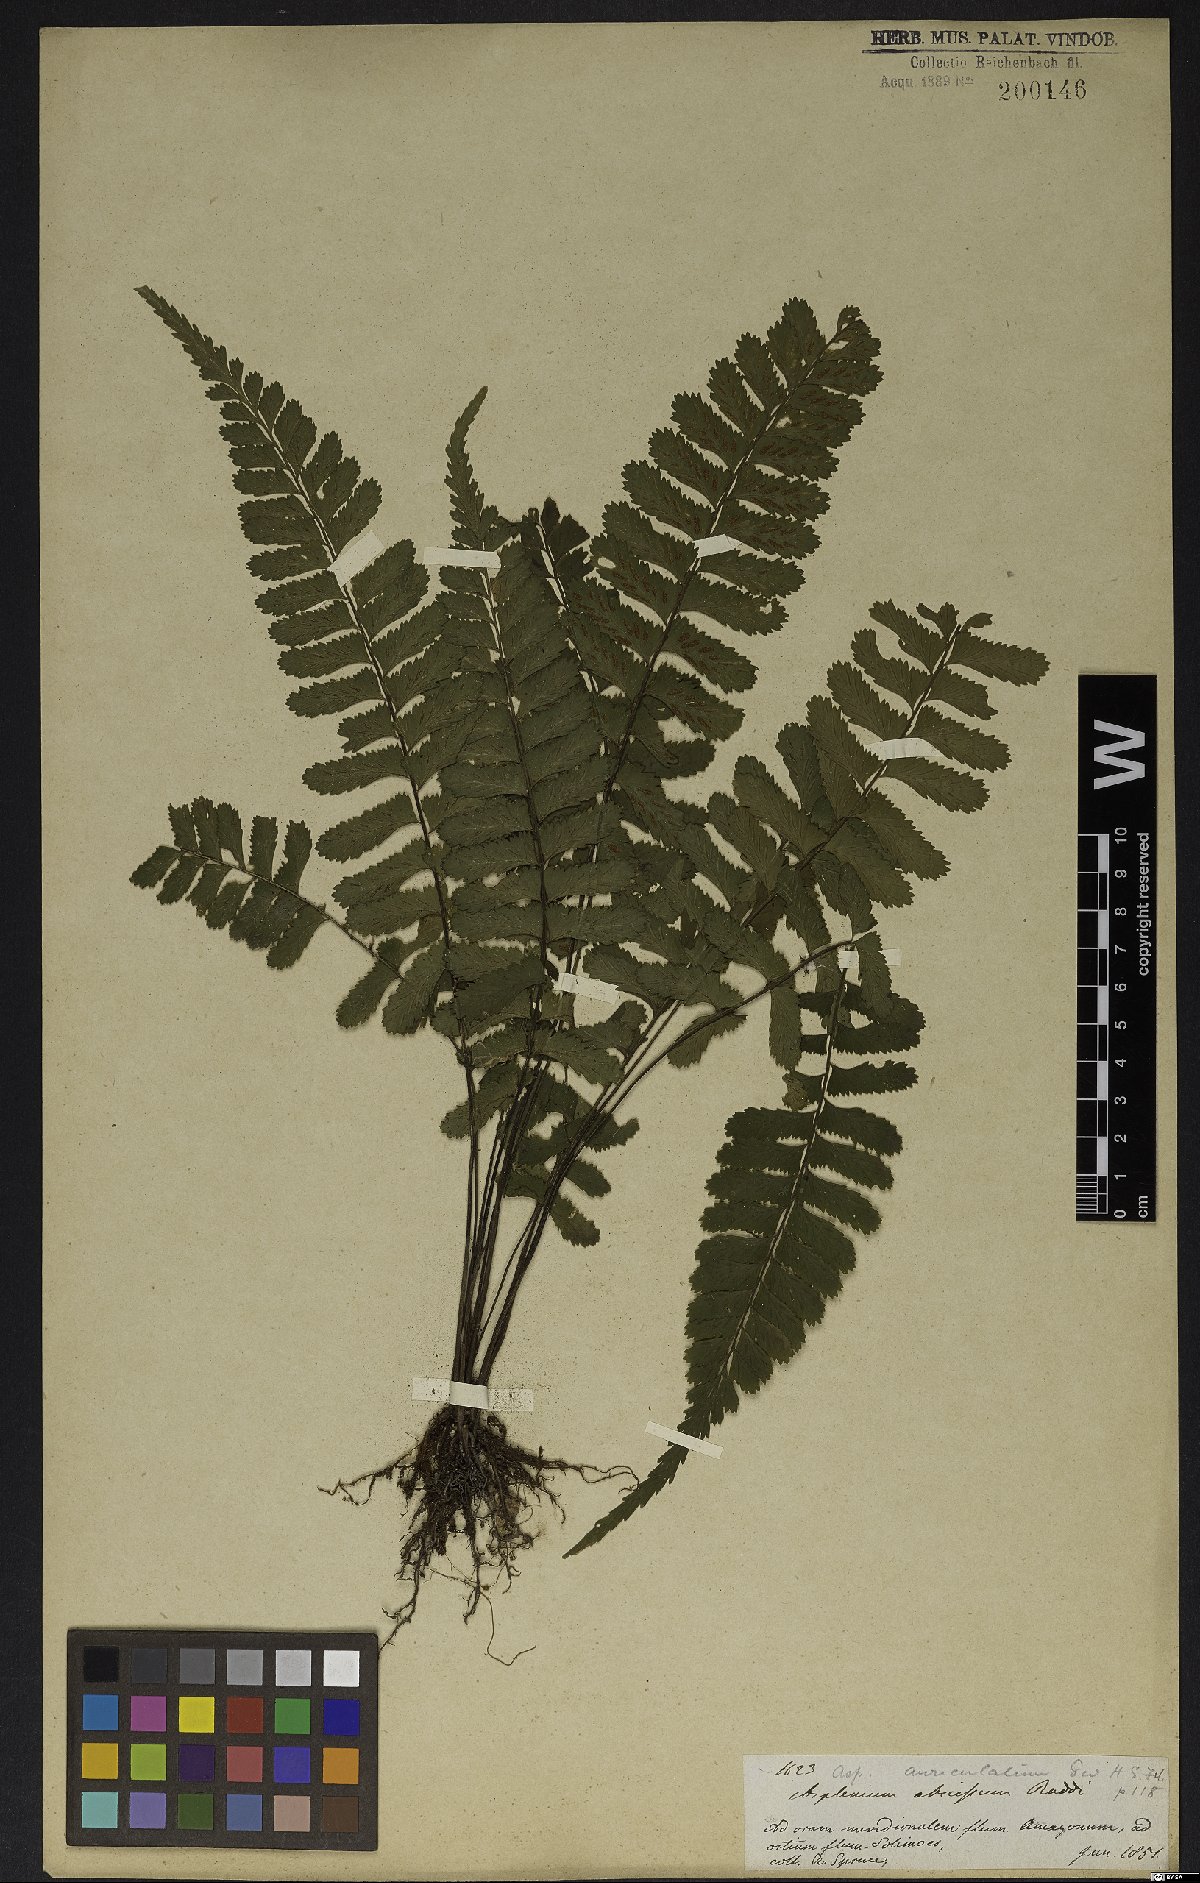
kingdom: Plantae
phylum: Tracheophyta
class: Polypodiopsida
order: Polypodiales
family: Aspleniaceae
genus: Asplenium
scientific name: Asplenium abscissum
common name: Cutleaf spleenwort
